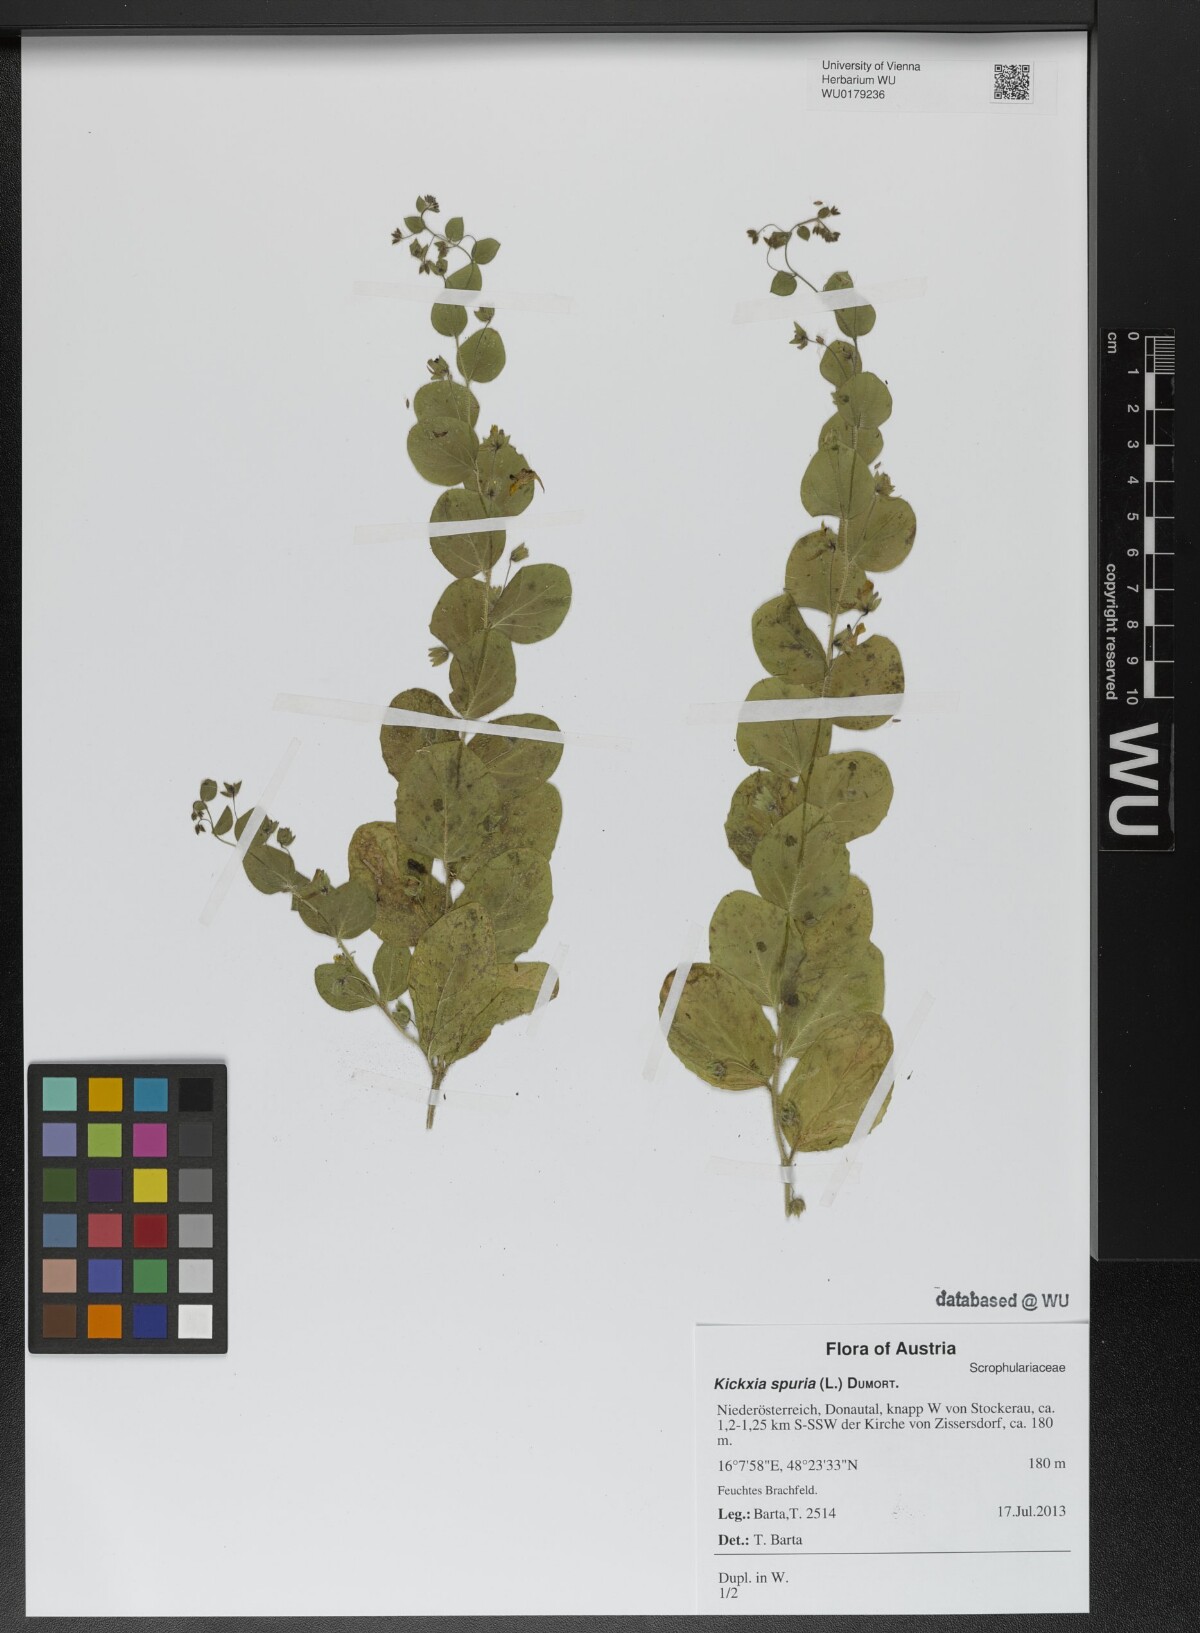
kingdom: Plantae
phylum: Tracheophyta
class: Magnoliopsida
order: Lamiales
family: Plantaginaceae
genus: Kickxia
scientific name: Kickxia spuria
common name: Round-leaved fluellen
